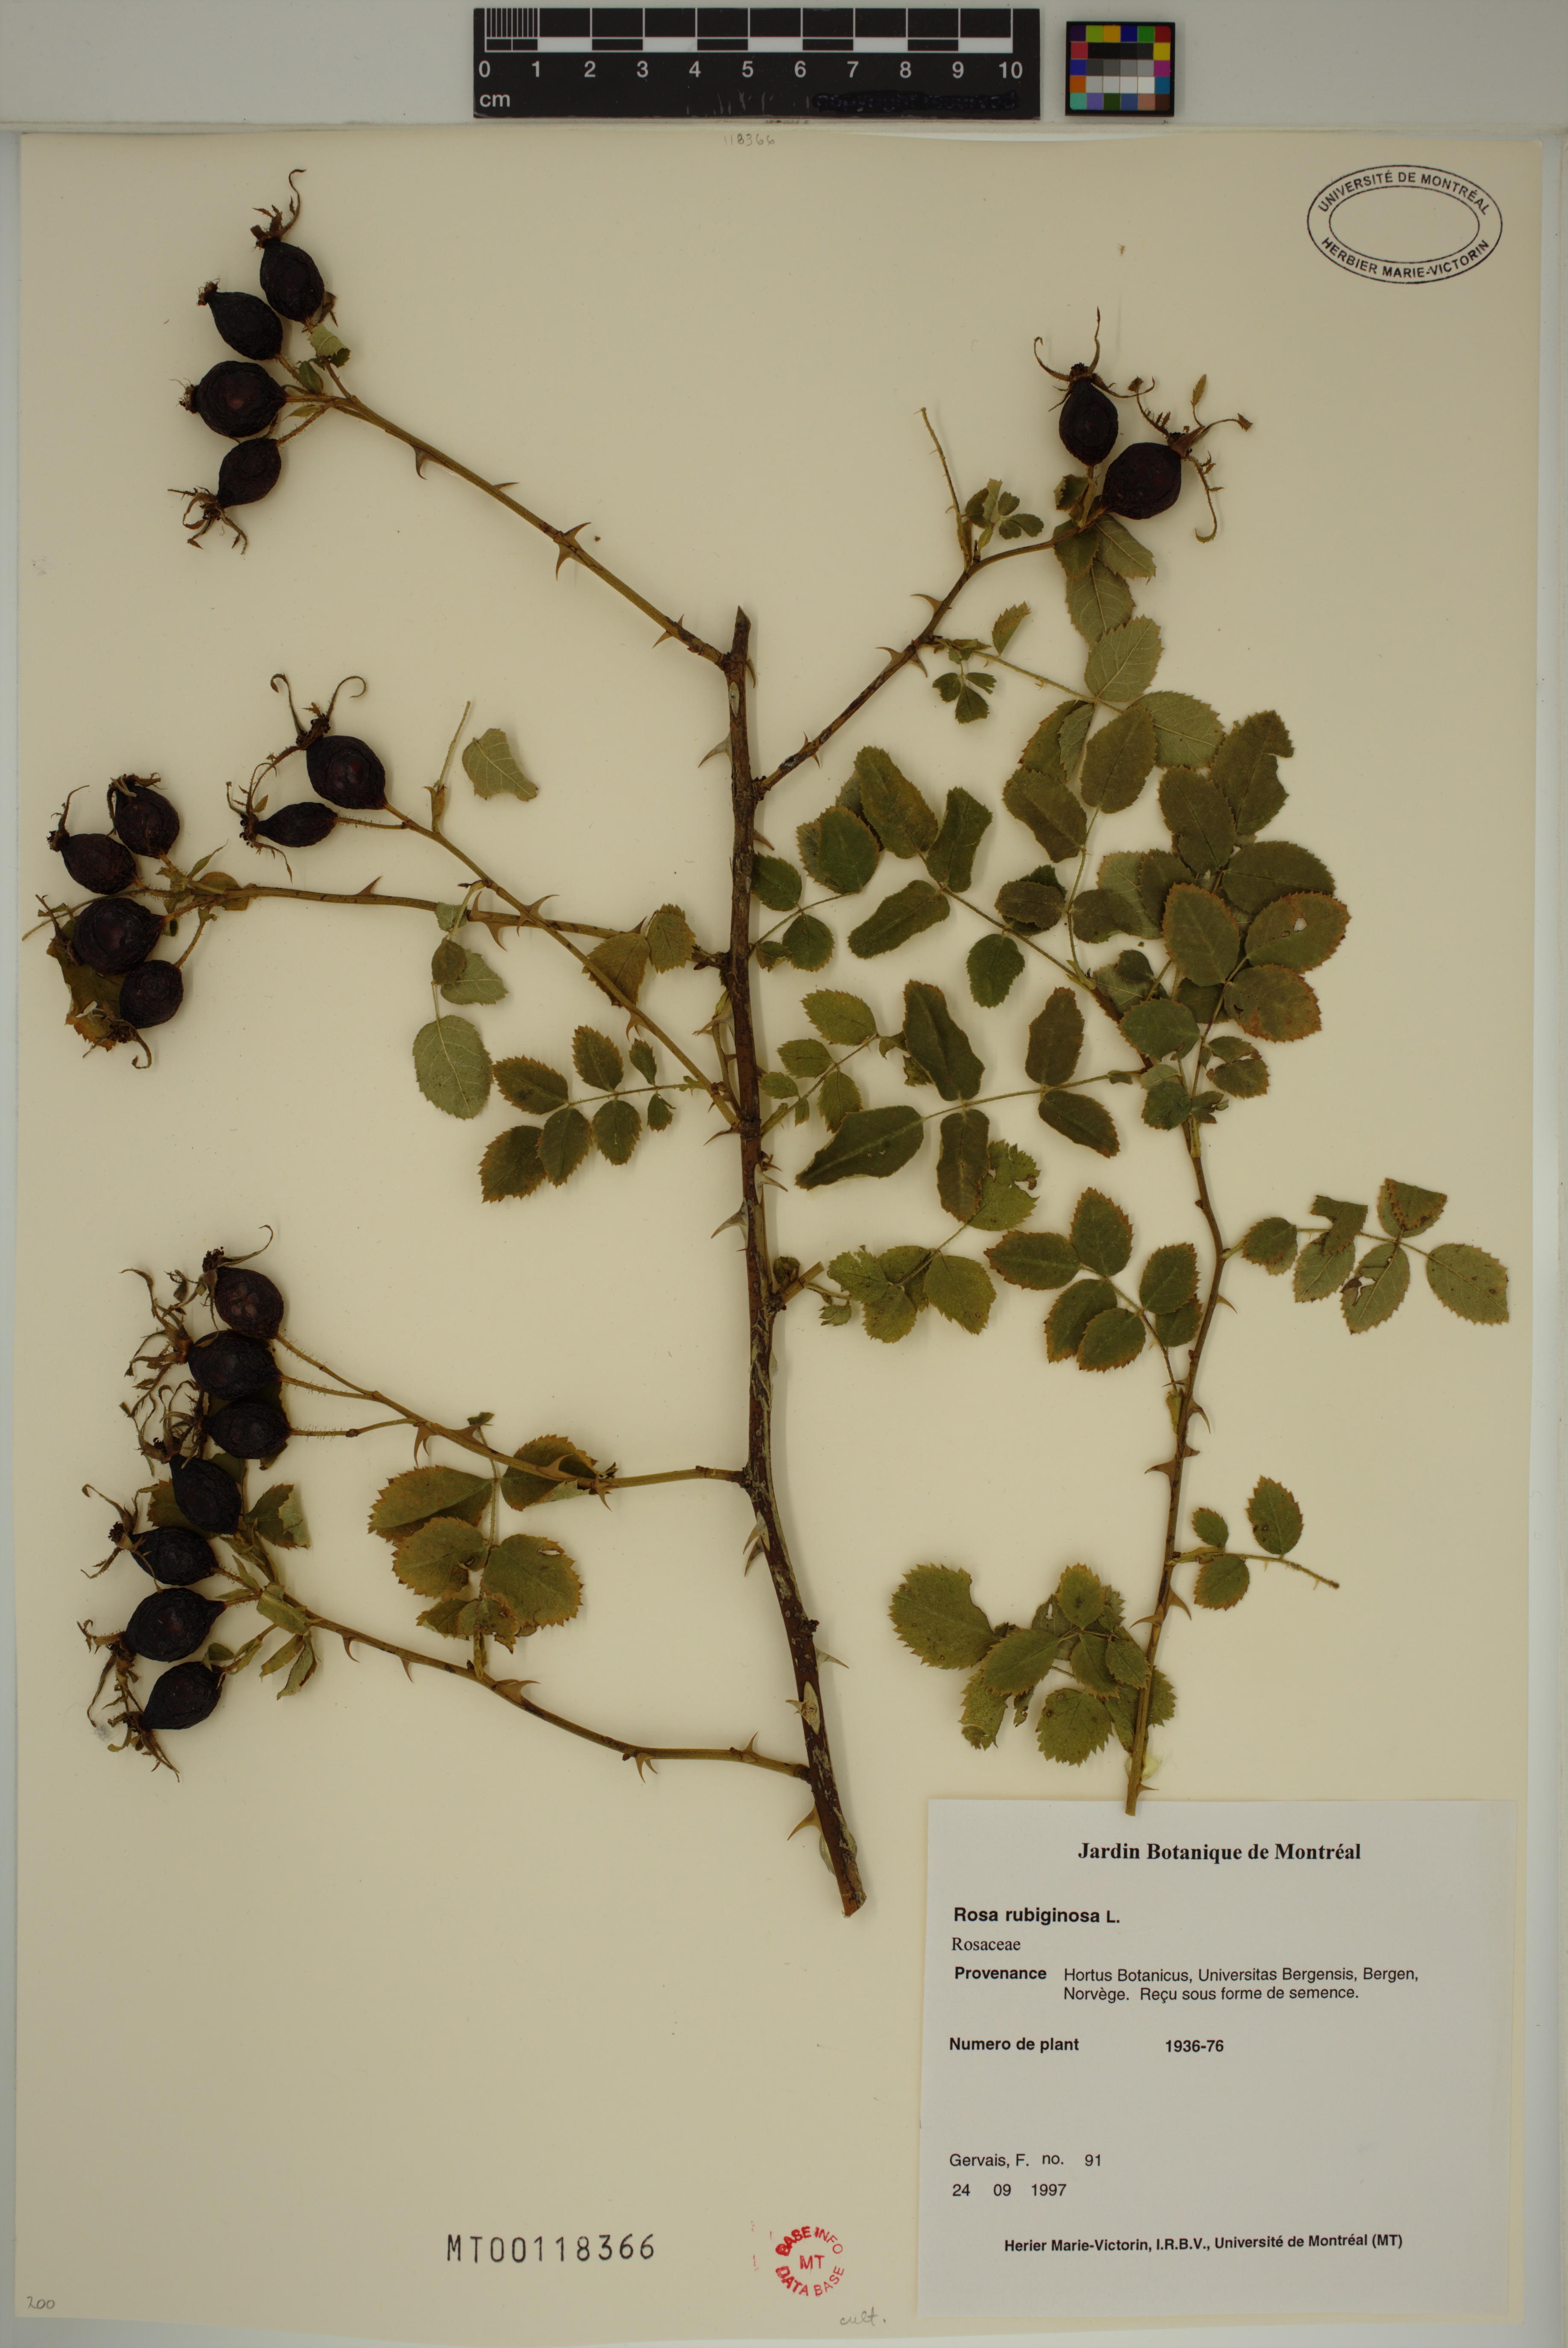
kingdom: Plantae
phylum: Tracheophyta
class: Magnoliopsida
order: Rosales
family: Rosaceae
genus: Rosa
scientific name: Rosa rubiginosa
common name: Sweet-briar
